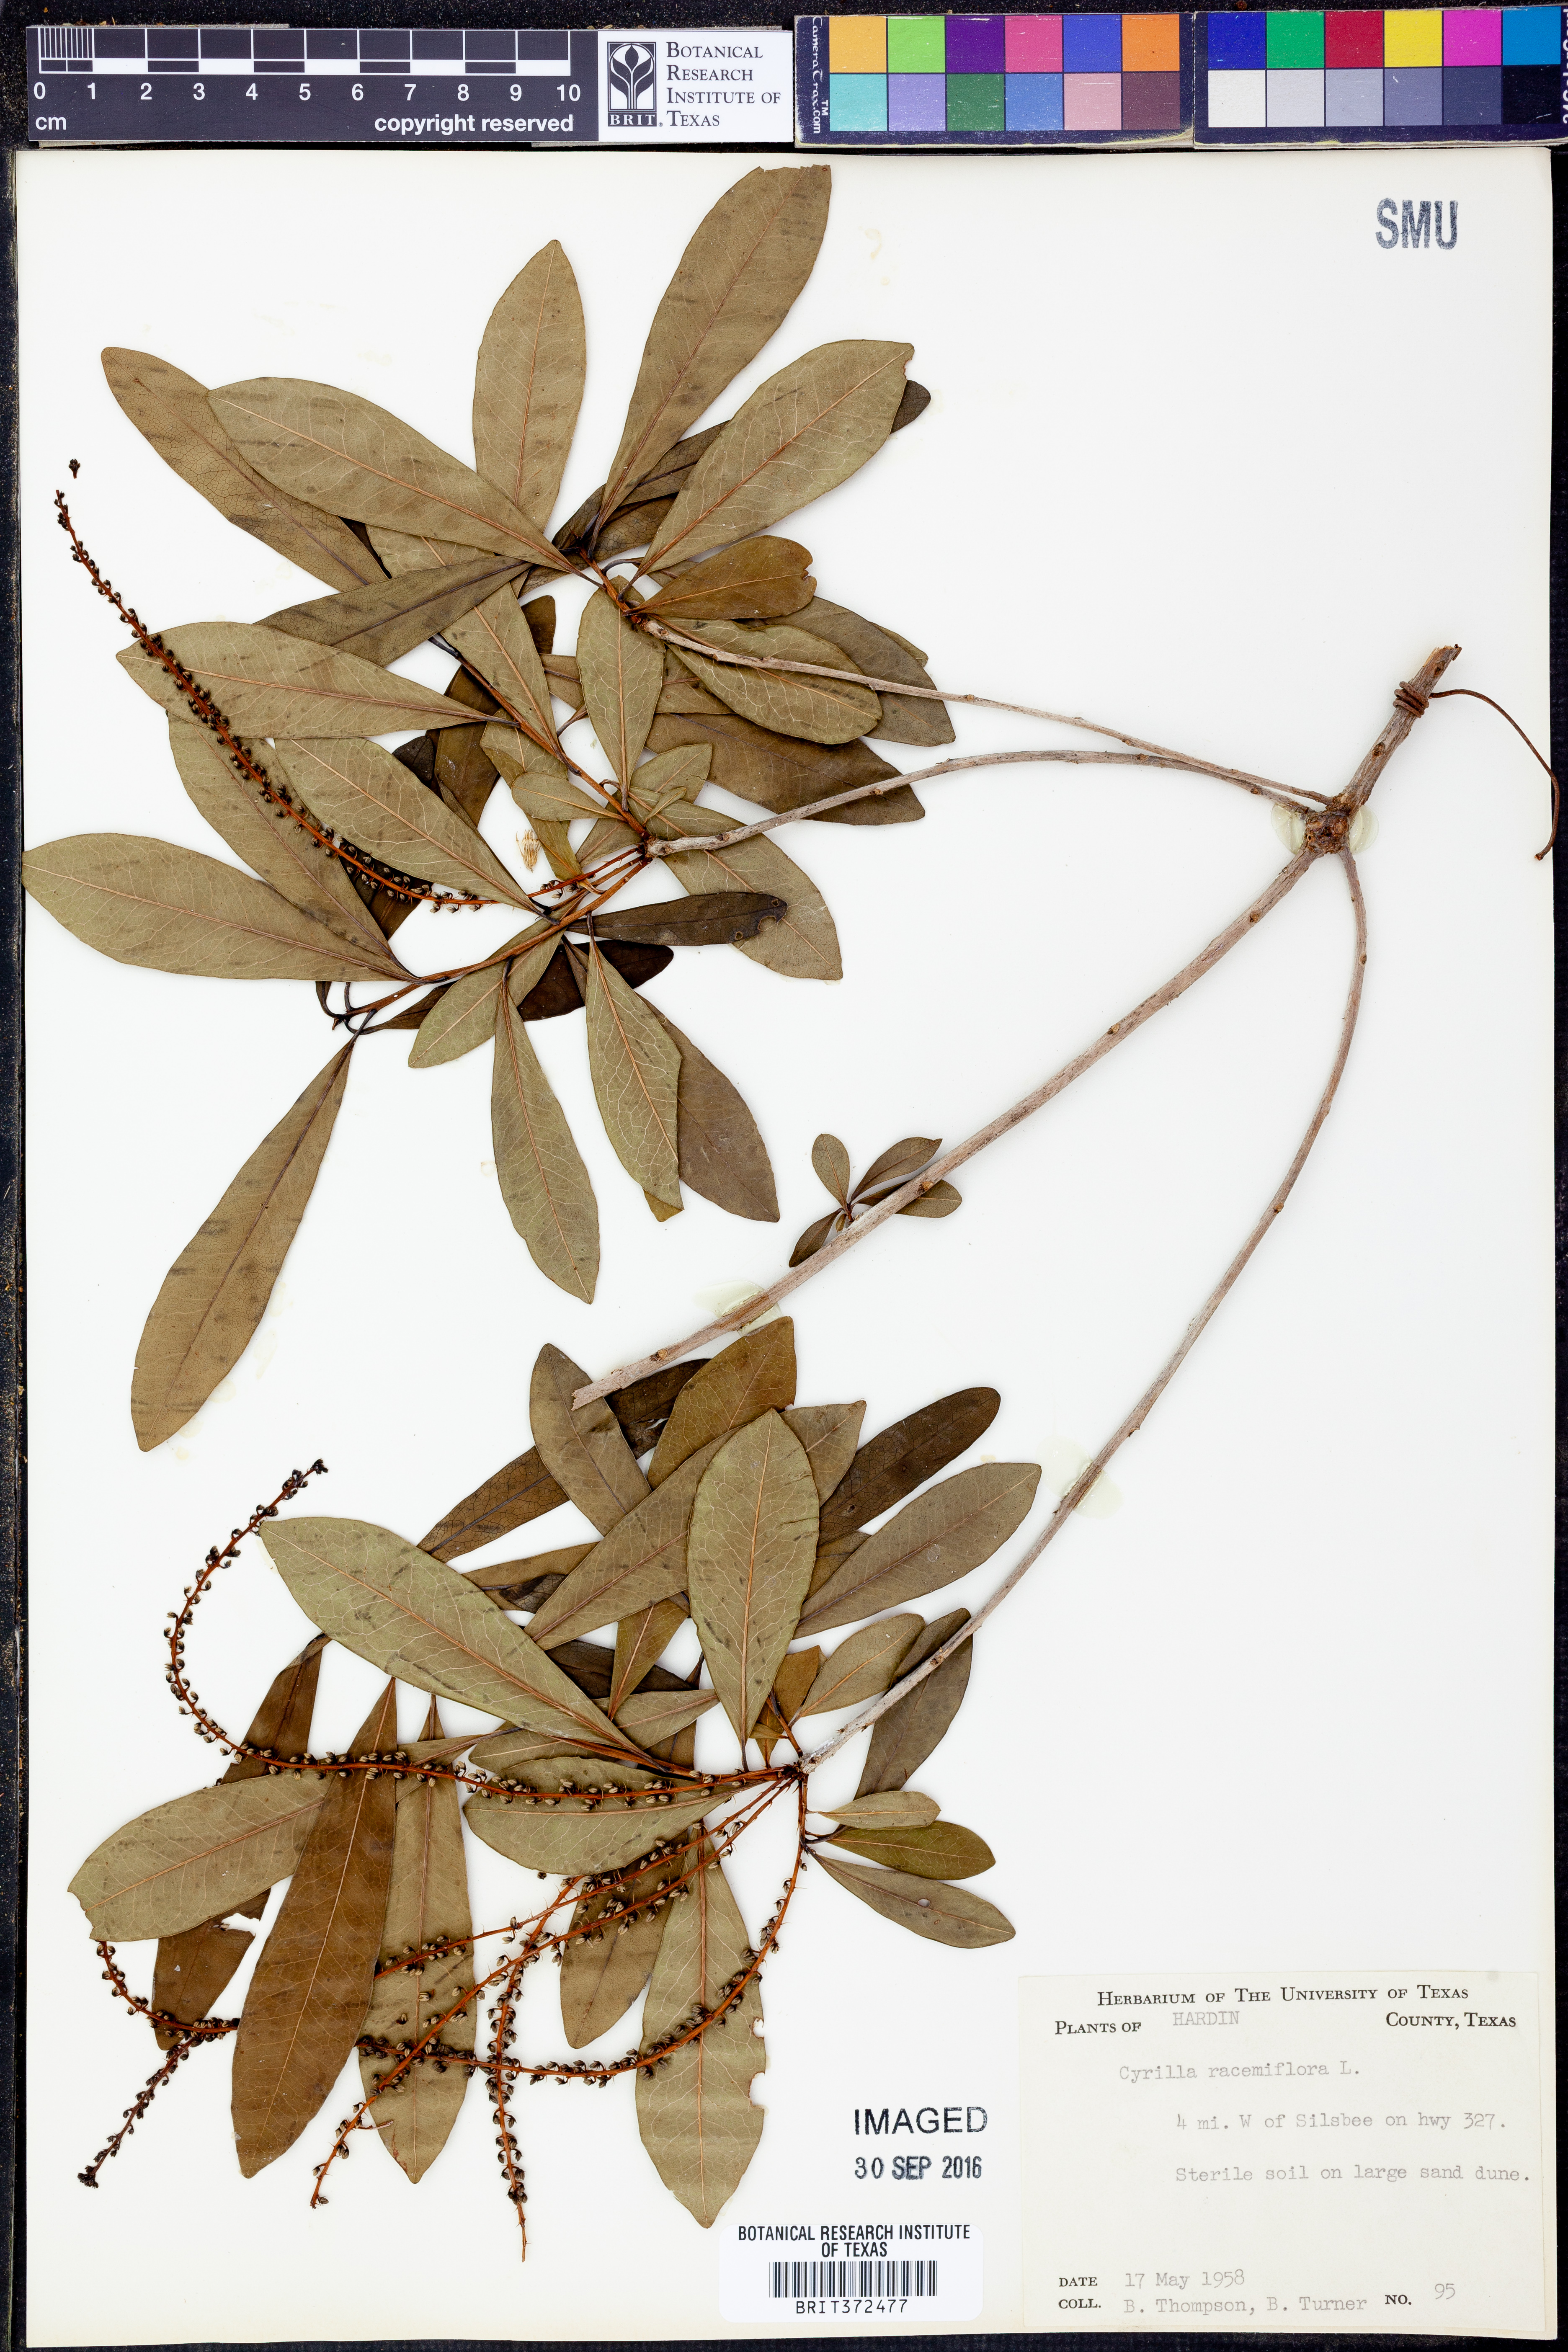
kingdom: Plantae
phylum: Tracheophyta
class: Magnoliopsida
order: Ericales
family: Cyrillaceae
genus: Cyrilla
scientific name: Cyrilla racemiflora
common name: Black titi
